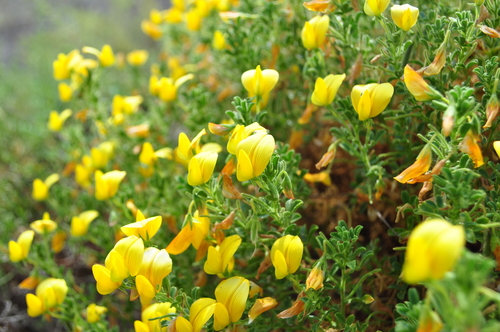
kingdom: Plantae
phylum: Tracheophyta
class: Magnoliopsida
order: Fabales
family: Fabaceae
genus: Ononis
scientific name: Ononis ramosissima
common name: Bush restharrow
